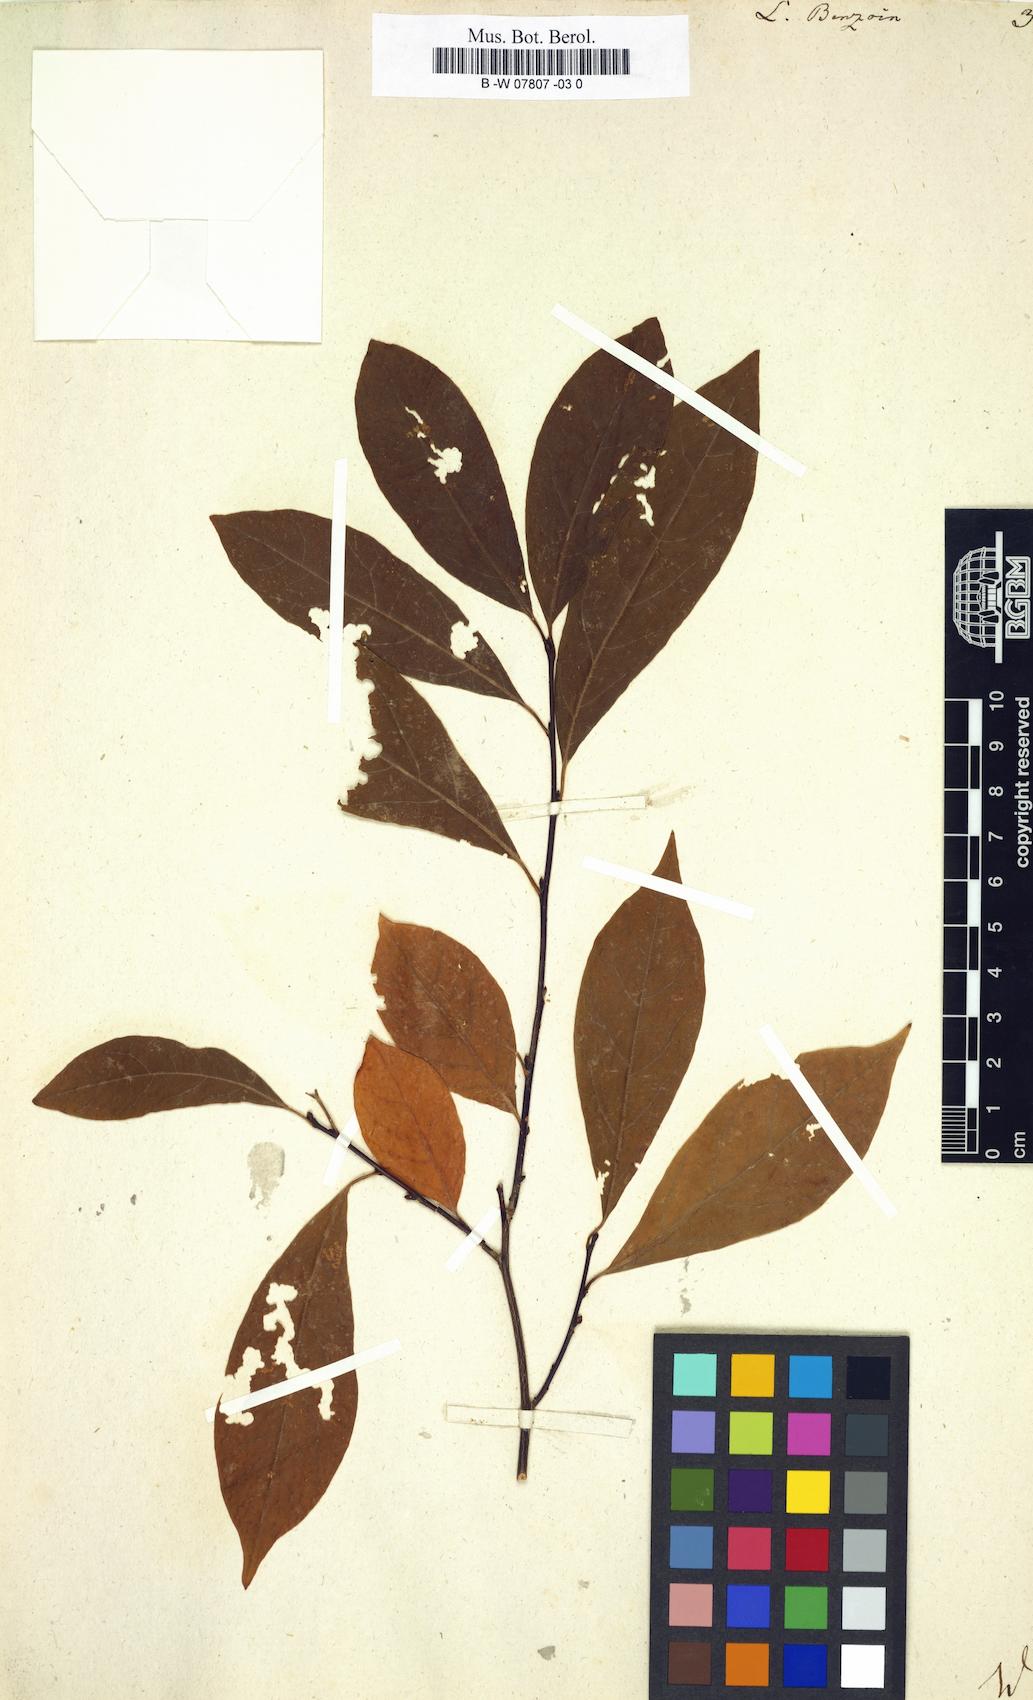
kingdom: Plantae
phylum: Tracheophyta
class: Magnoliopsida
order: Laurales
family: Lauraceae
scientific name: Lauraceae
